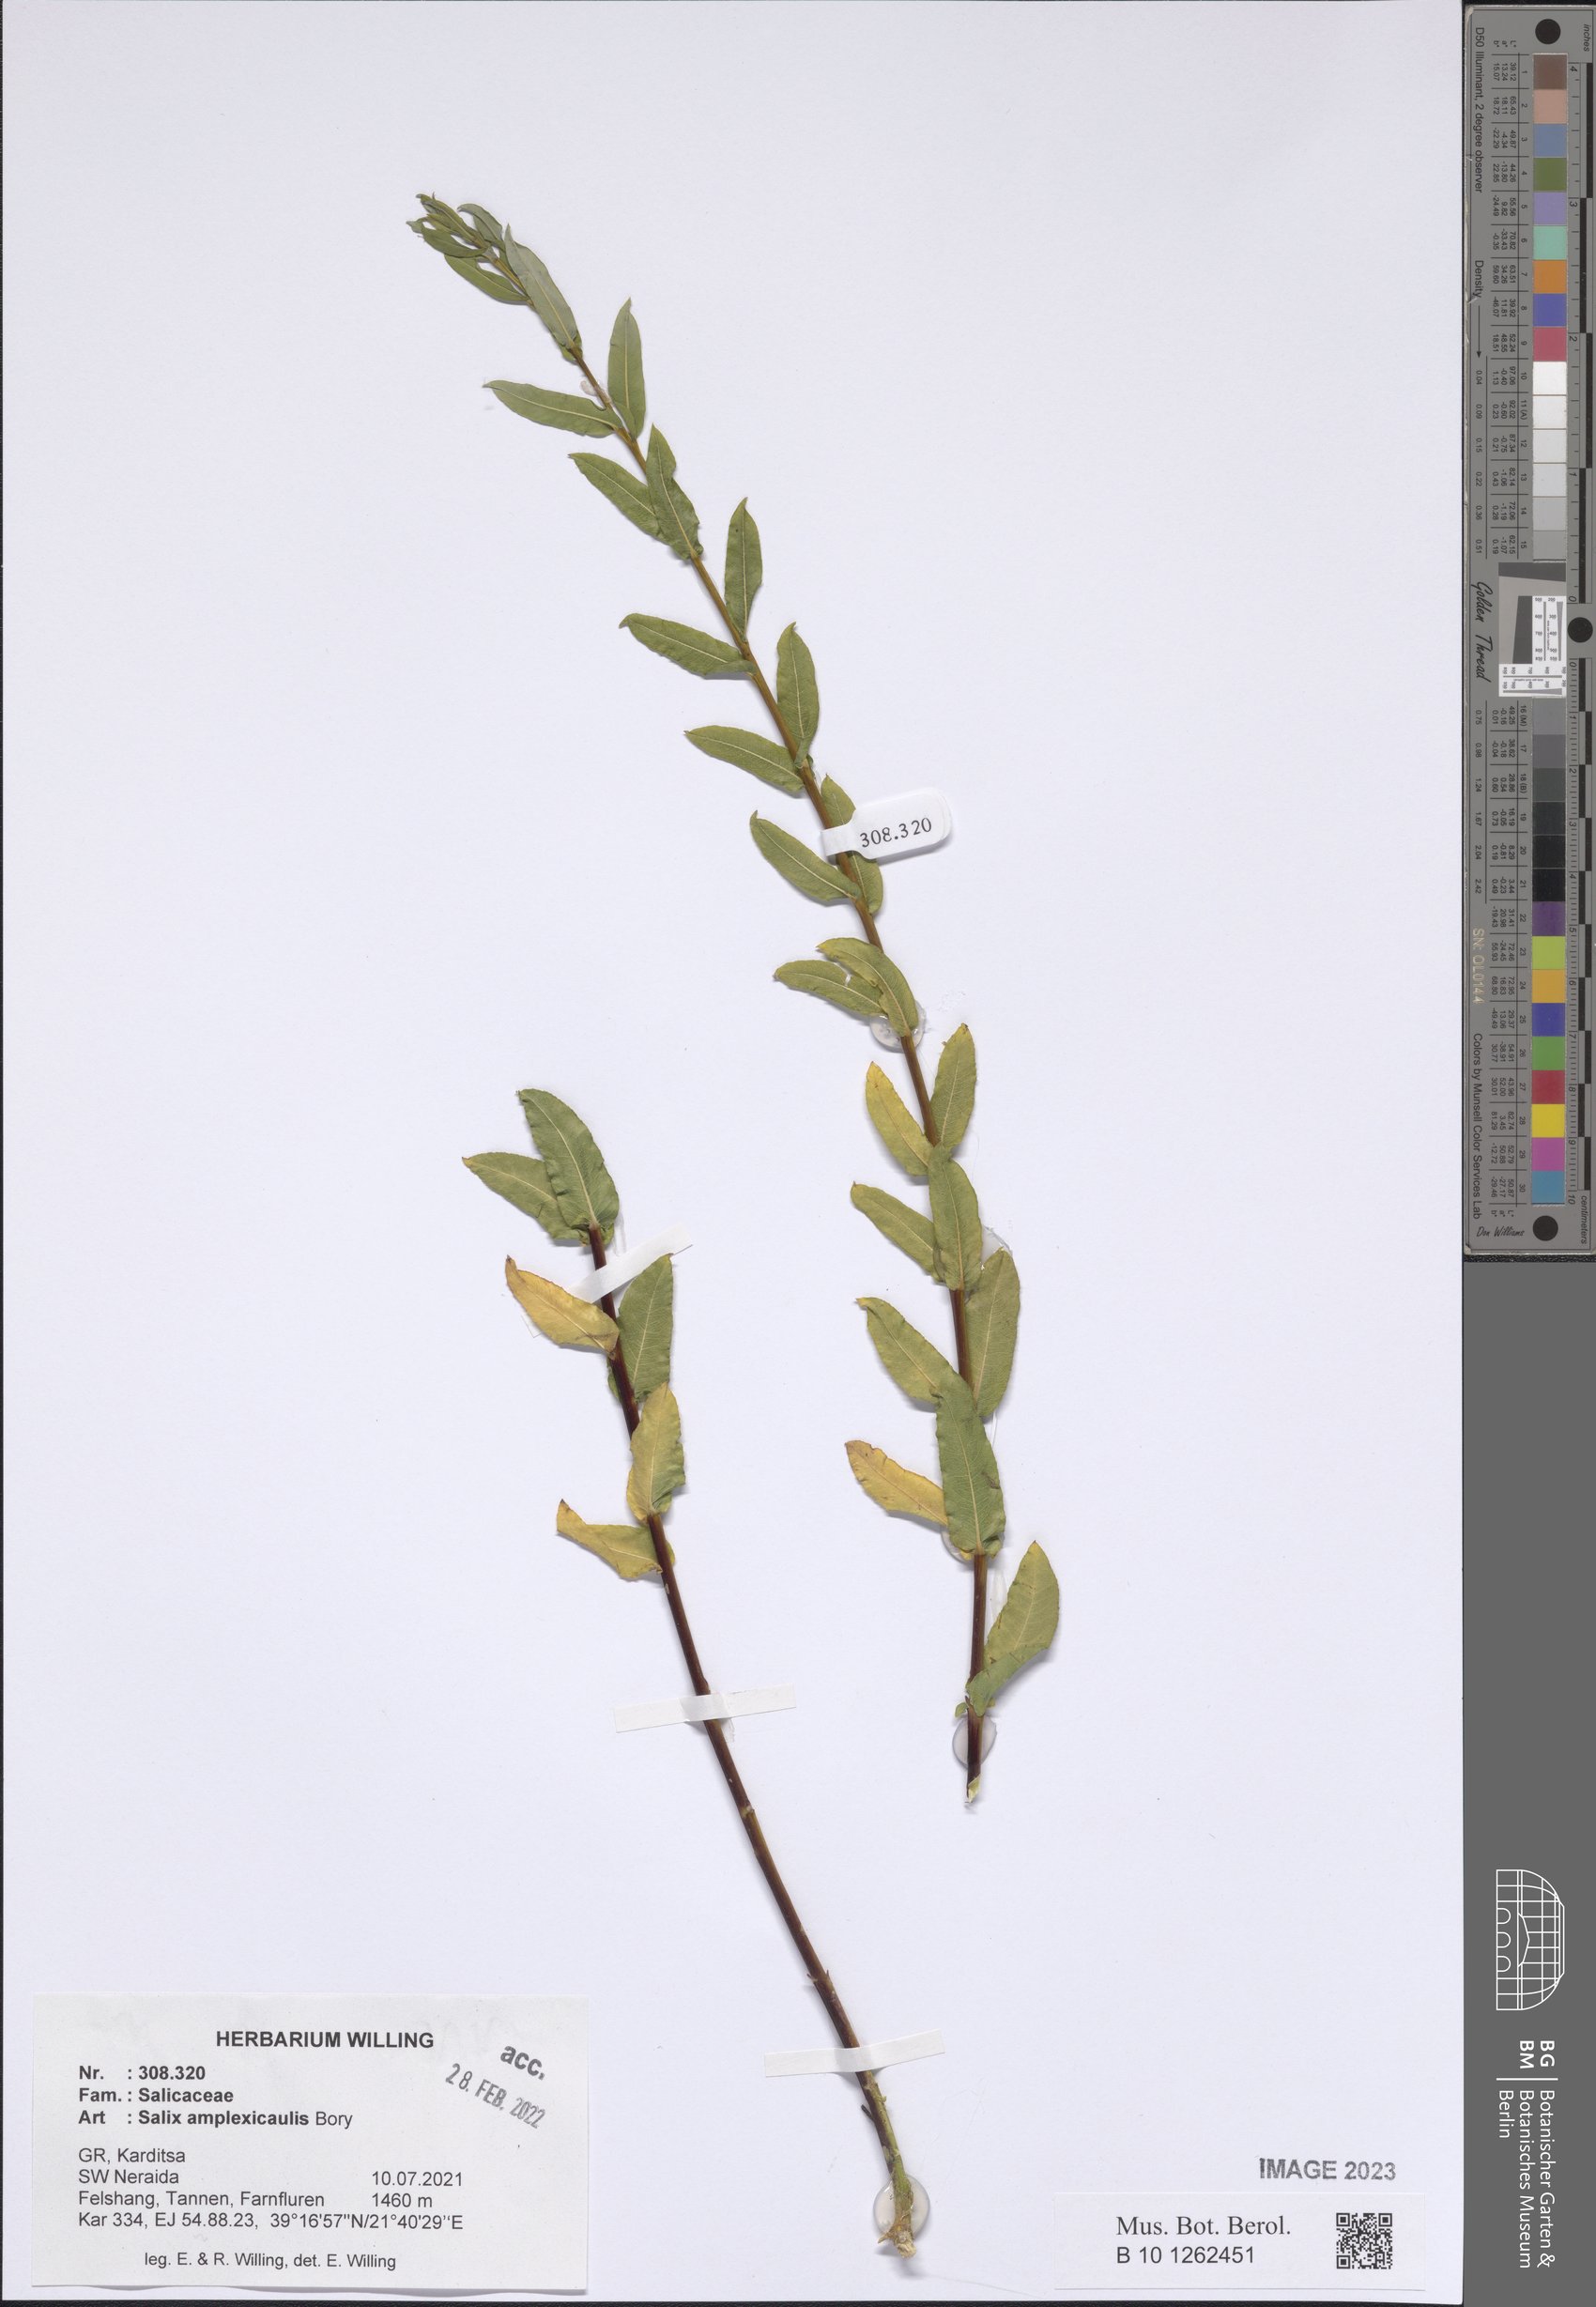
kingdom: Plantae
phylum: Tracheophyta
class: Magnoliopsida
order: Malpighiales
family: Salicaceae
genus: Salix
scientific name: Salix amplexicaulis
